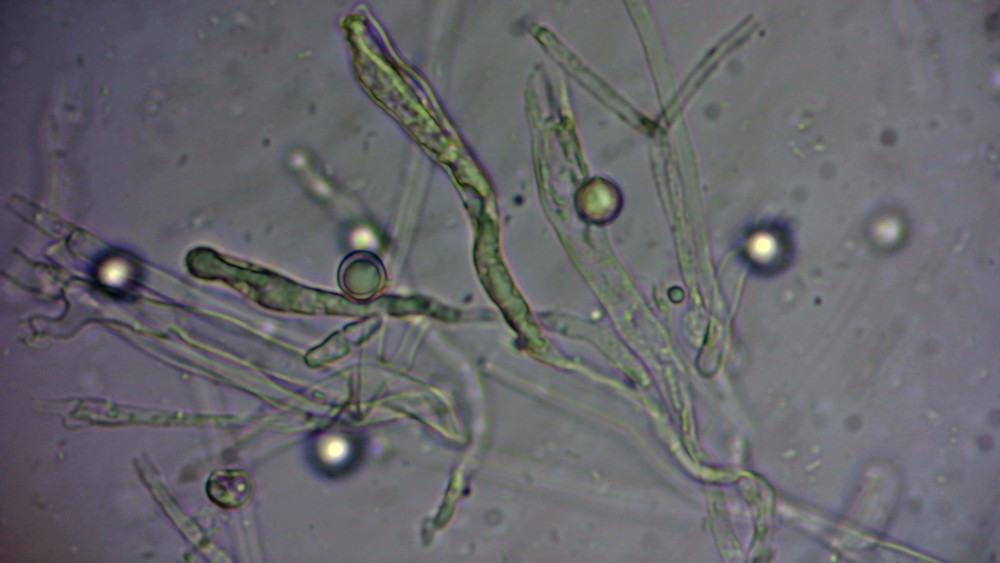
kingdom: Fungi
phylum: Basidiomycota
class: Agaricomycetes
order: Agaricales
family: Clavariaceae
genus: Clavulinopsis
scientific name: Clavulinopsis umbrinella
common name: gulgrå køllesvamp
